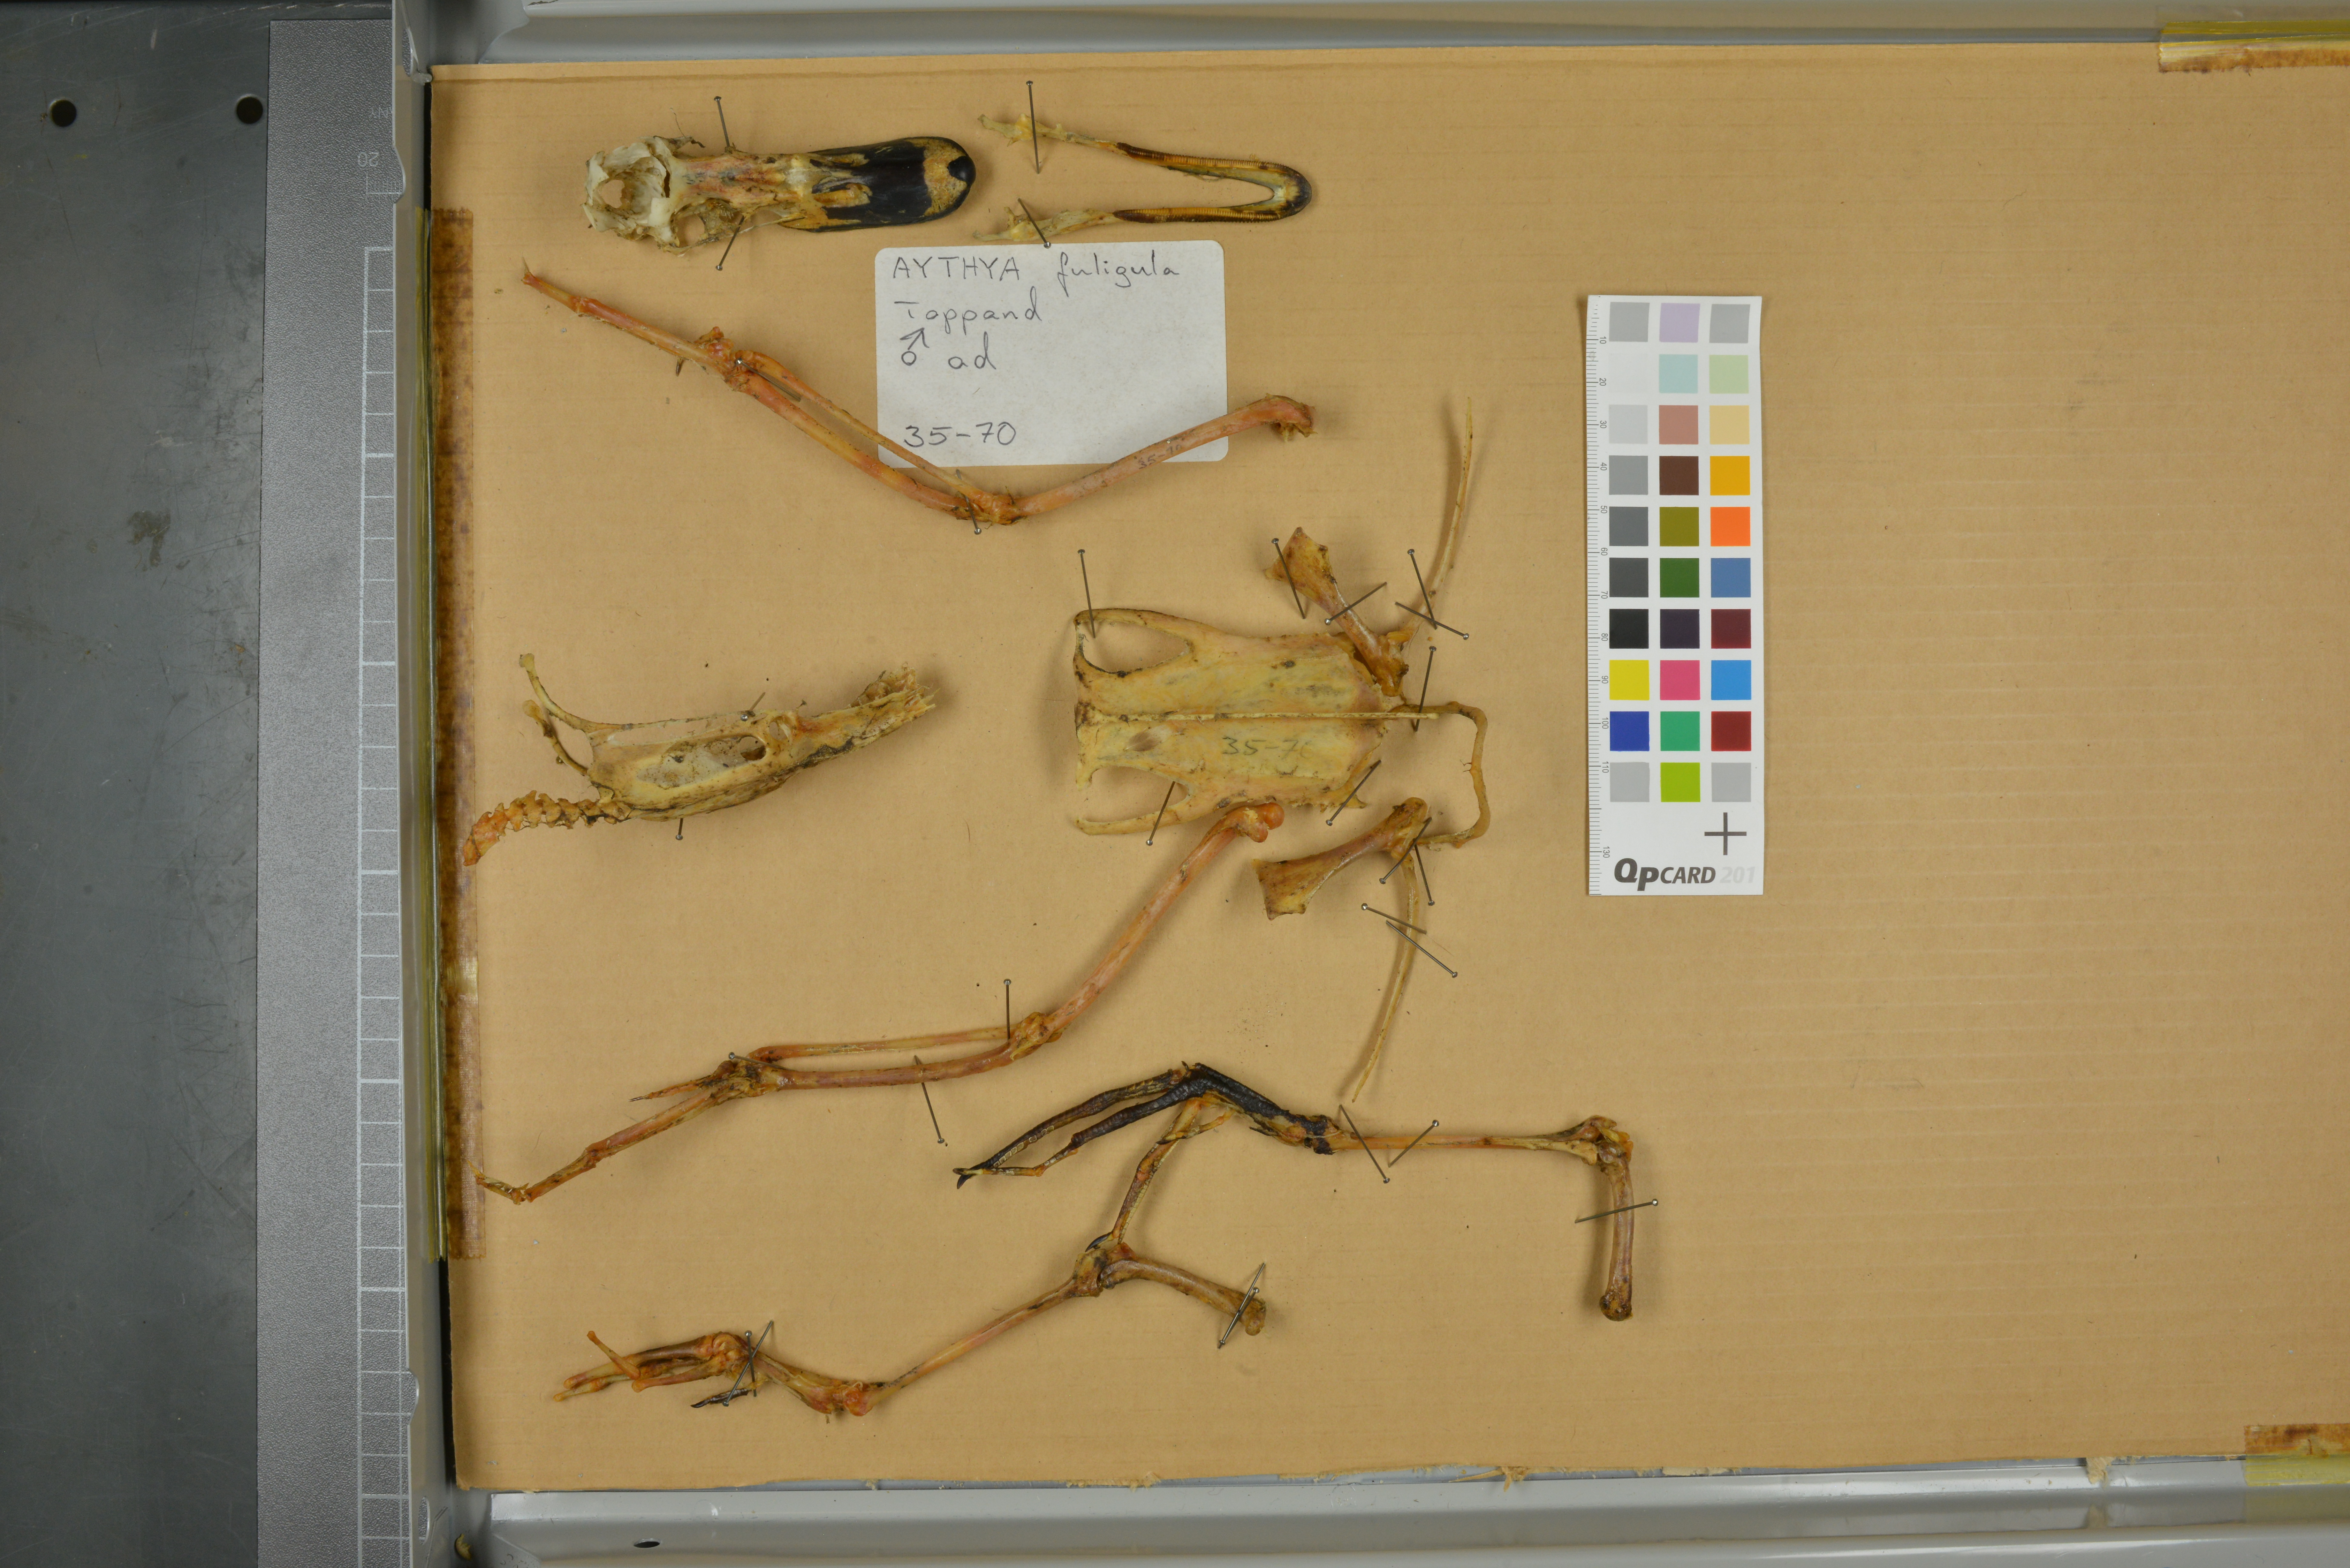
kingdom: Animalia
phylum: Chordata
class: Aves
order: Anseriformes
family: Anatidae
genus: Aythya
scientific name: Aythya fuligula
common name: Tufted duck
